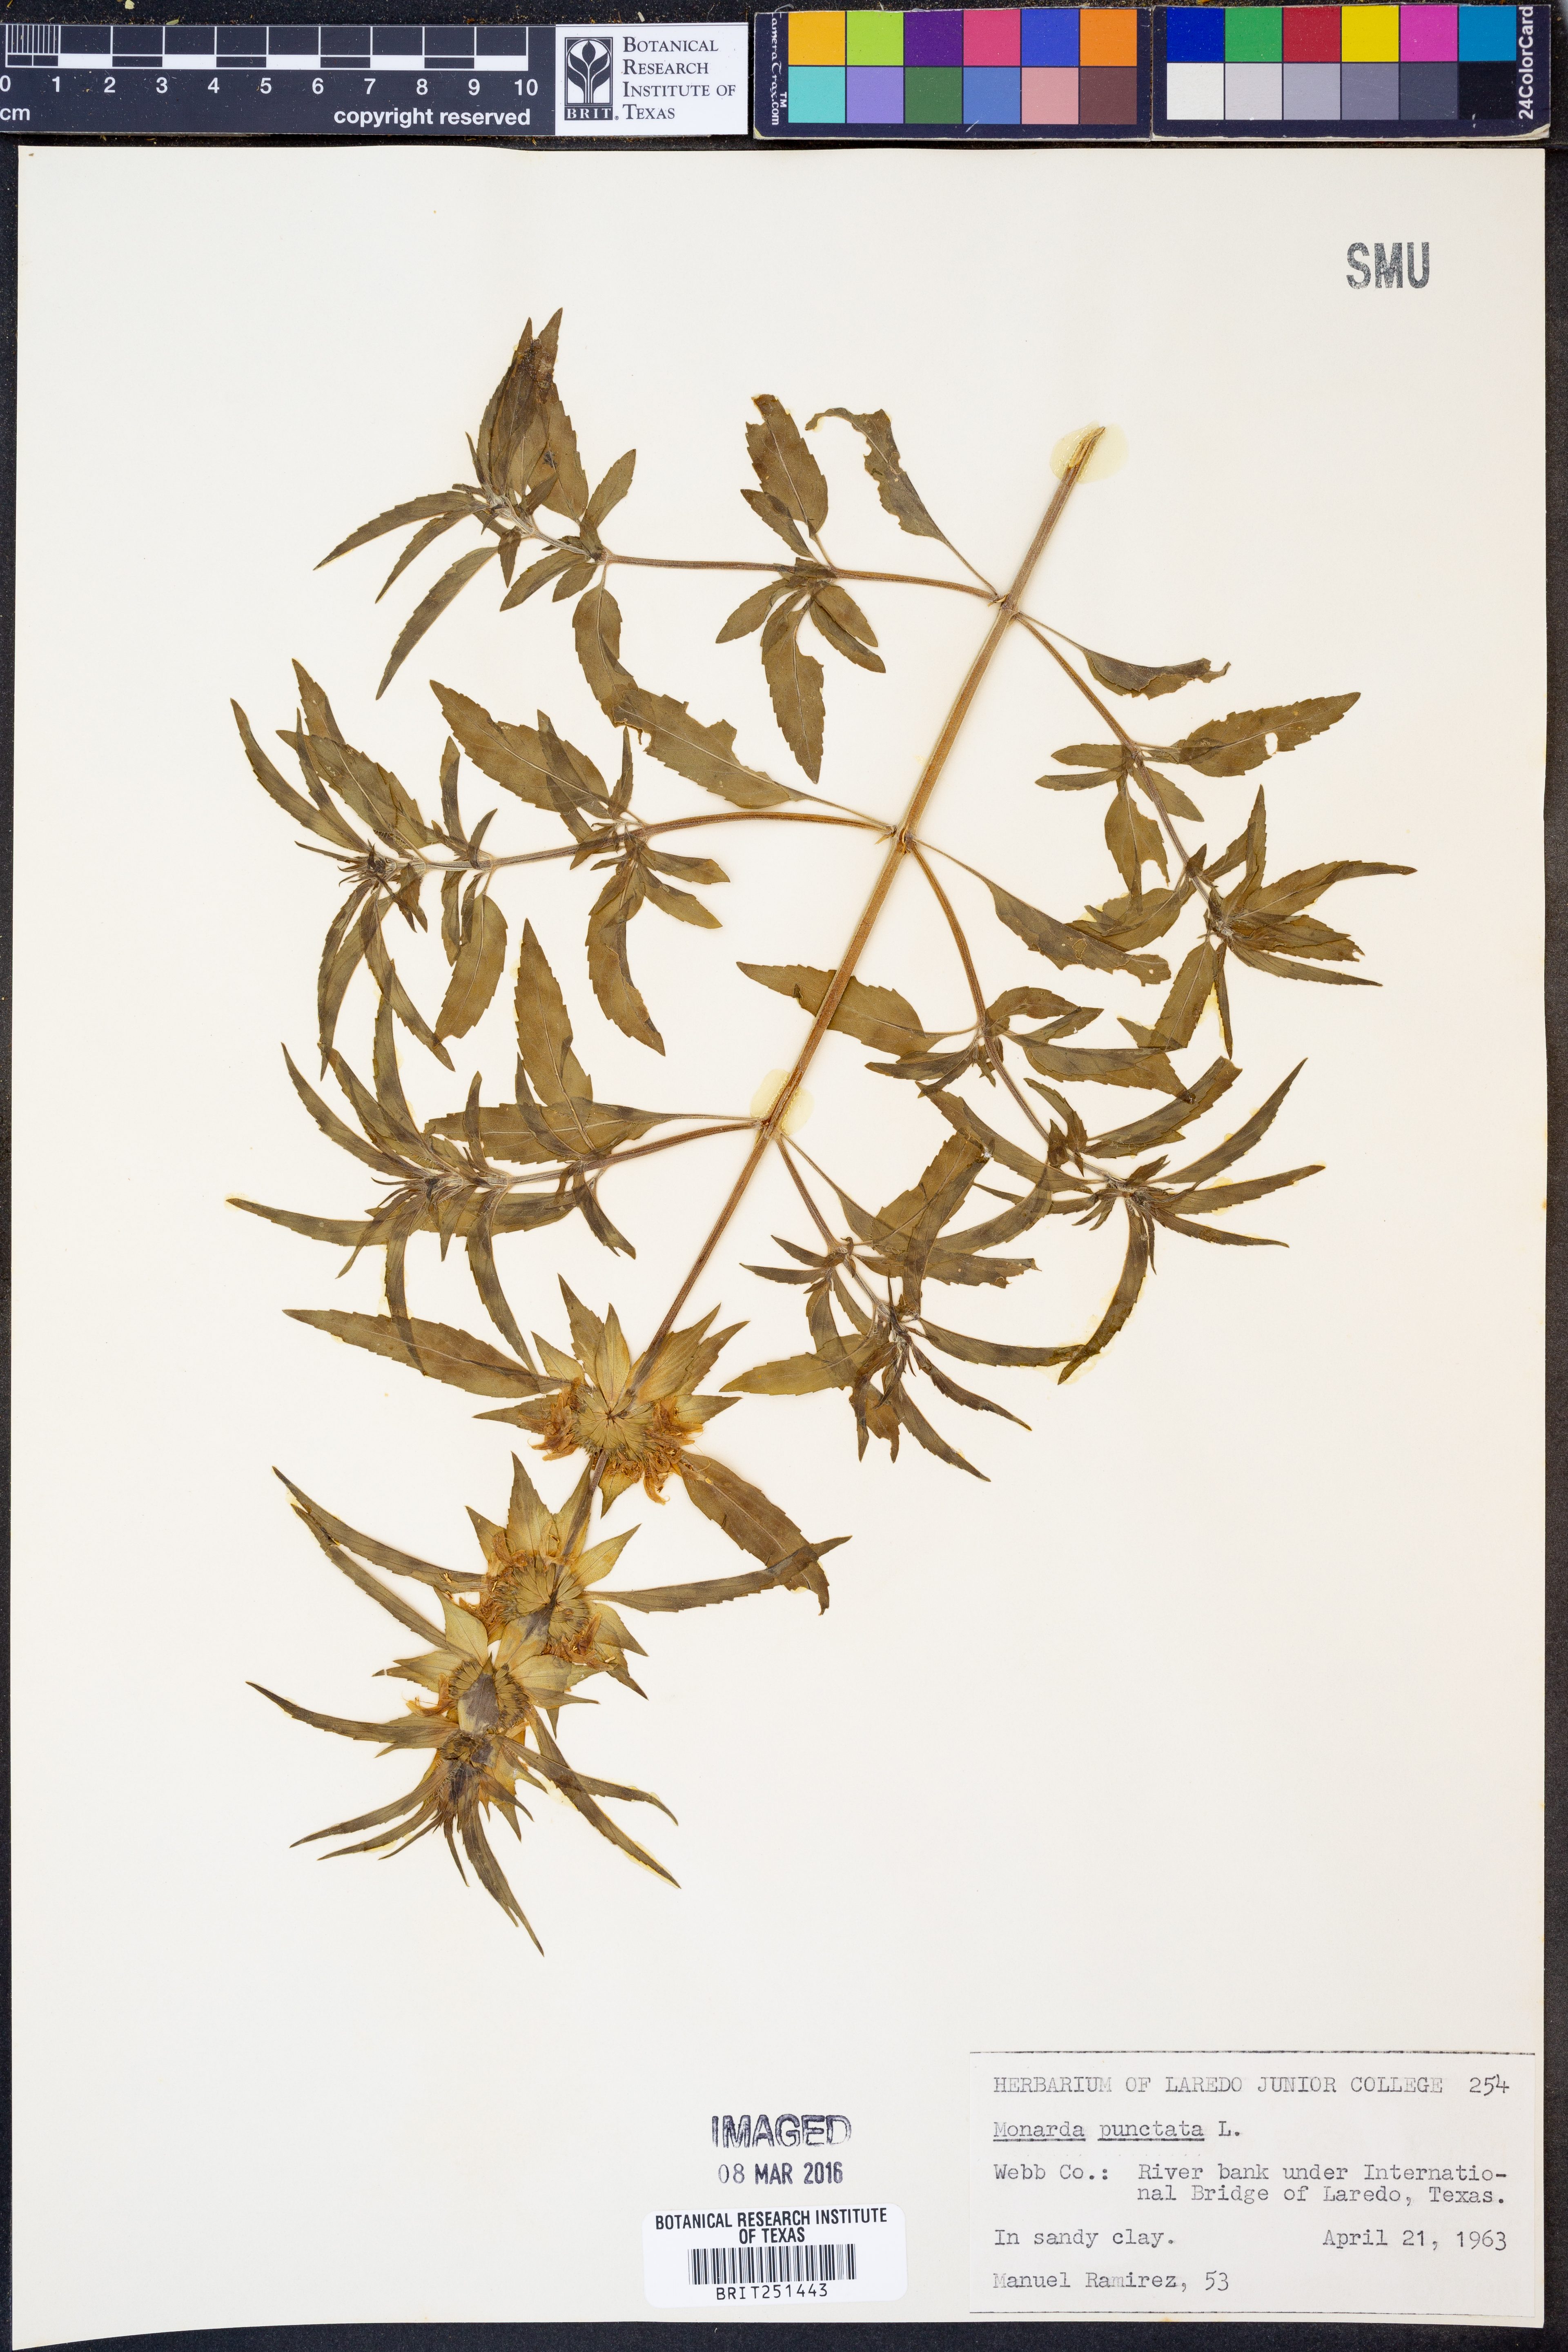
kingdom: Plantae
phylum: Tracheophyta
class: Magnoliopsida
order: Lamiales
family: Lamiaceae
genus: Monarda
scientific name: Monarda punctata
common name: Dotted monarda
